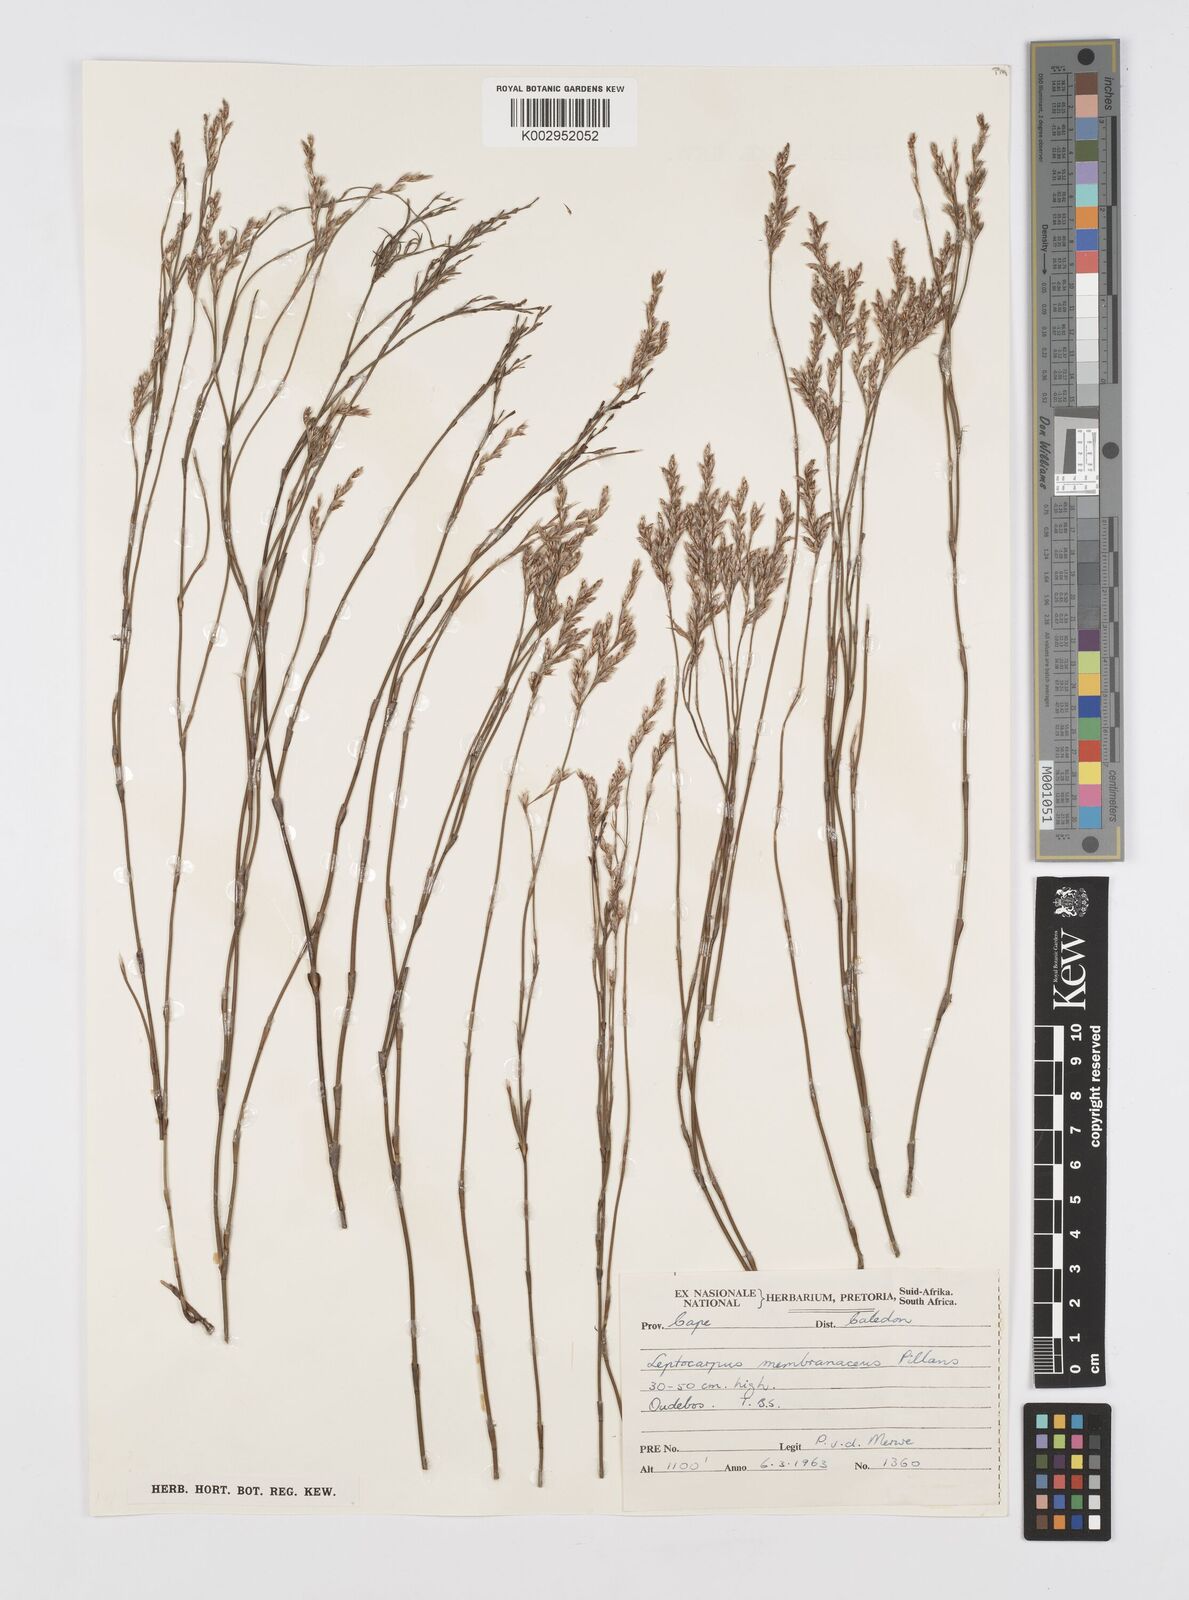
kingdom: Plantae
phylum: Tracheophyta
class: Liliopsida
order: Poales
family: Restionaceae
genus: Elegia
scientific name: Elegia intermedia
